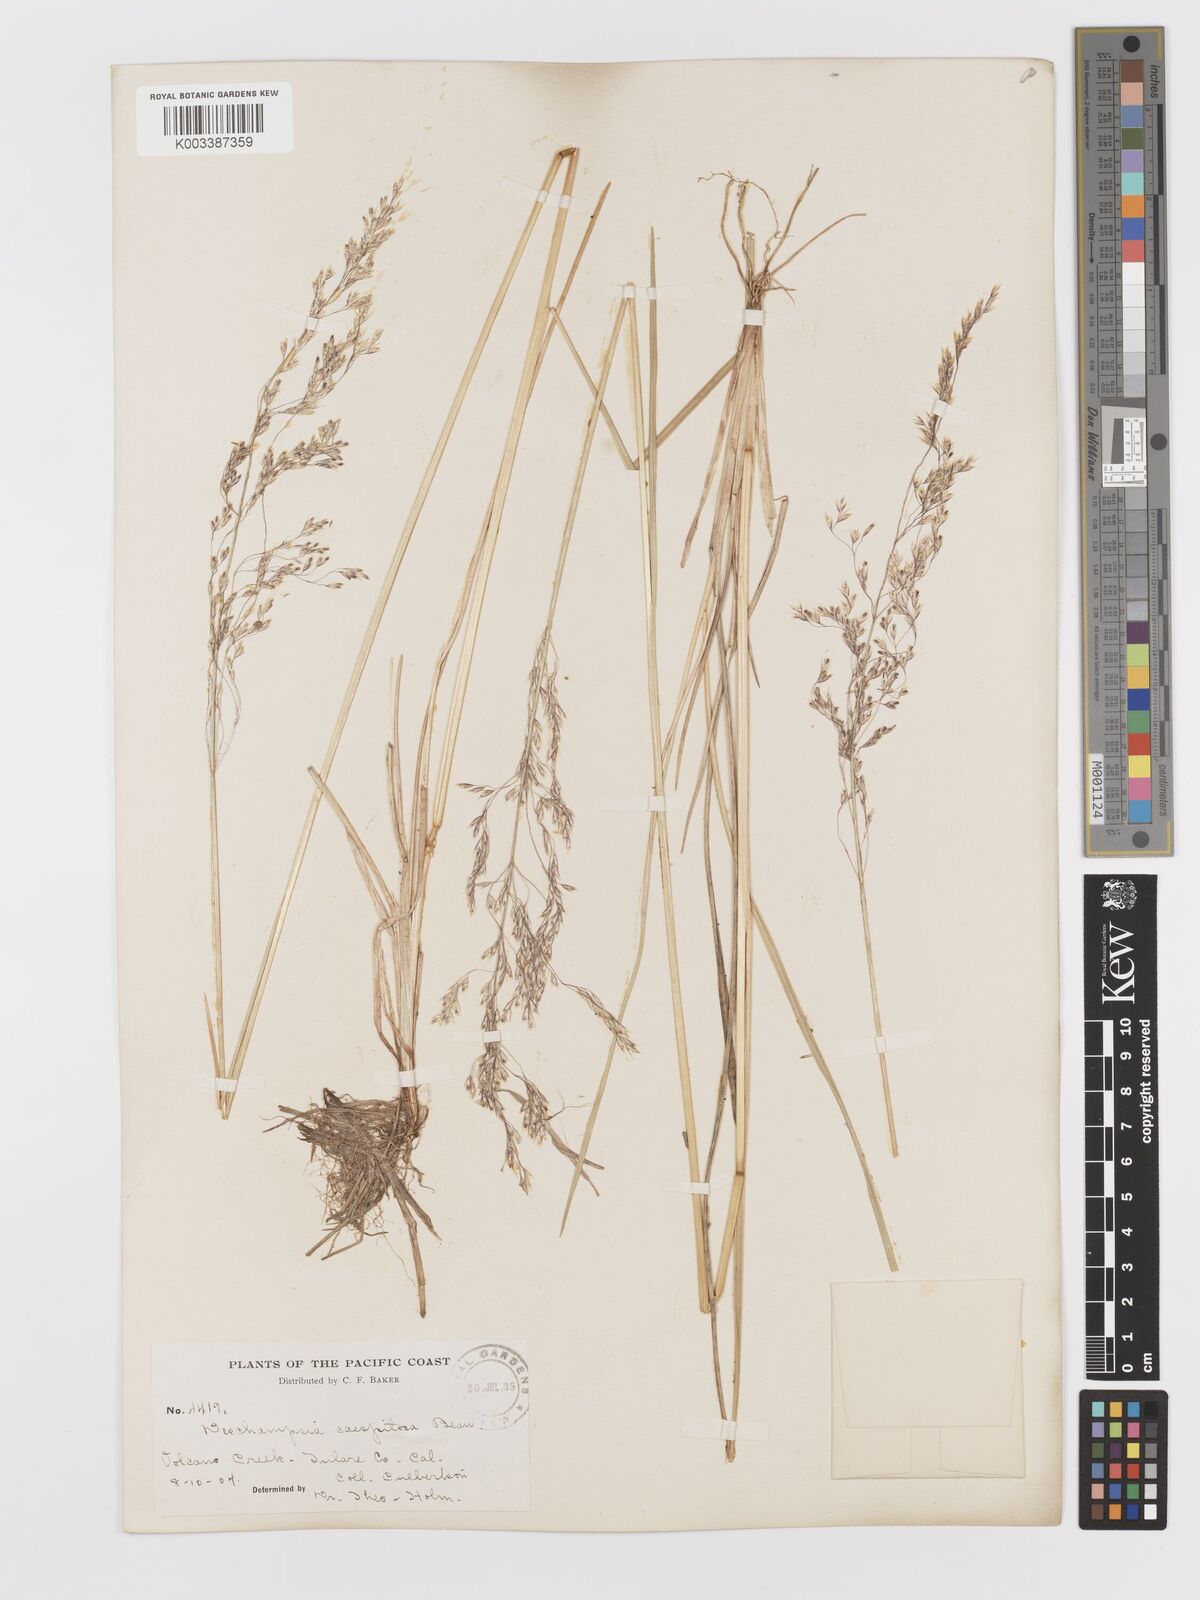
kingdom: Plantae
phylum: Tracheophyta
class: Liliopsida
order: Poales
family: Poaceae
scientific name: Poaceae
